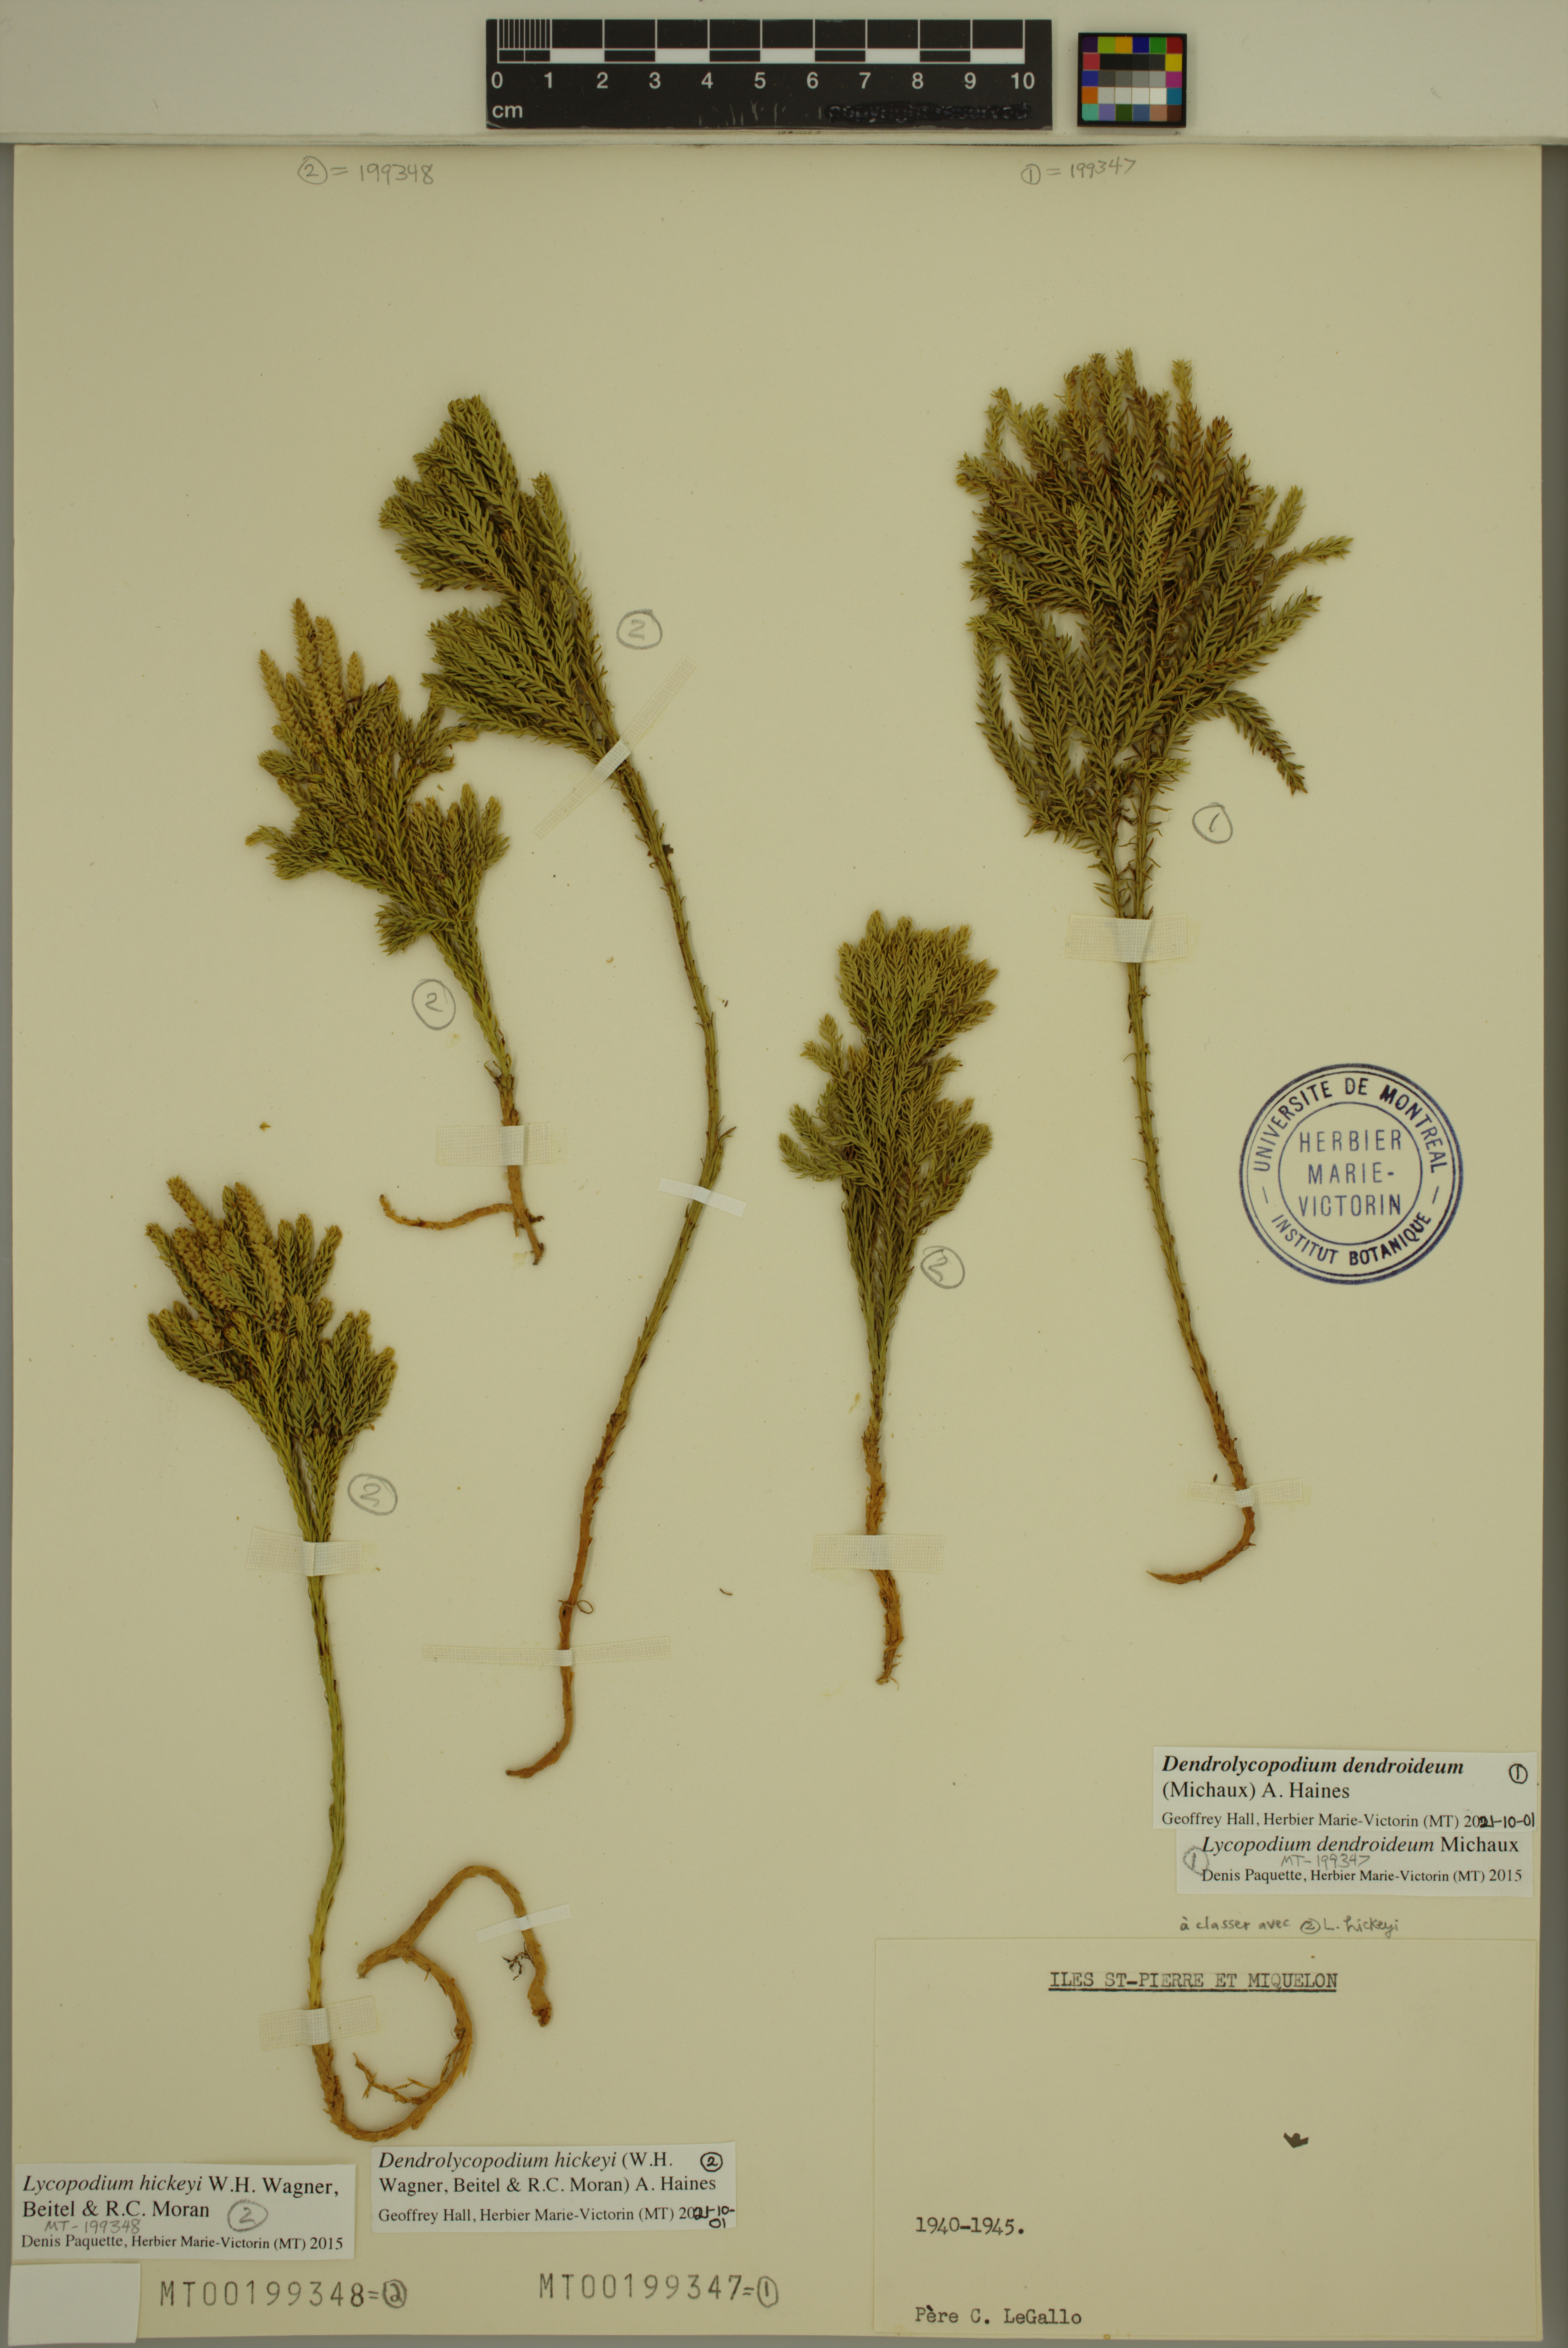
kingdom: Plantae
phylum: Tracheophyta
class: Lycopodiopsida
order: Lycopodiales
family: Lycopodiaceae
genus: Dendrolycopodium
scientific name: Dendrolycopodium dendroideum
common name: Northern tree-clubmoss
